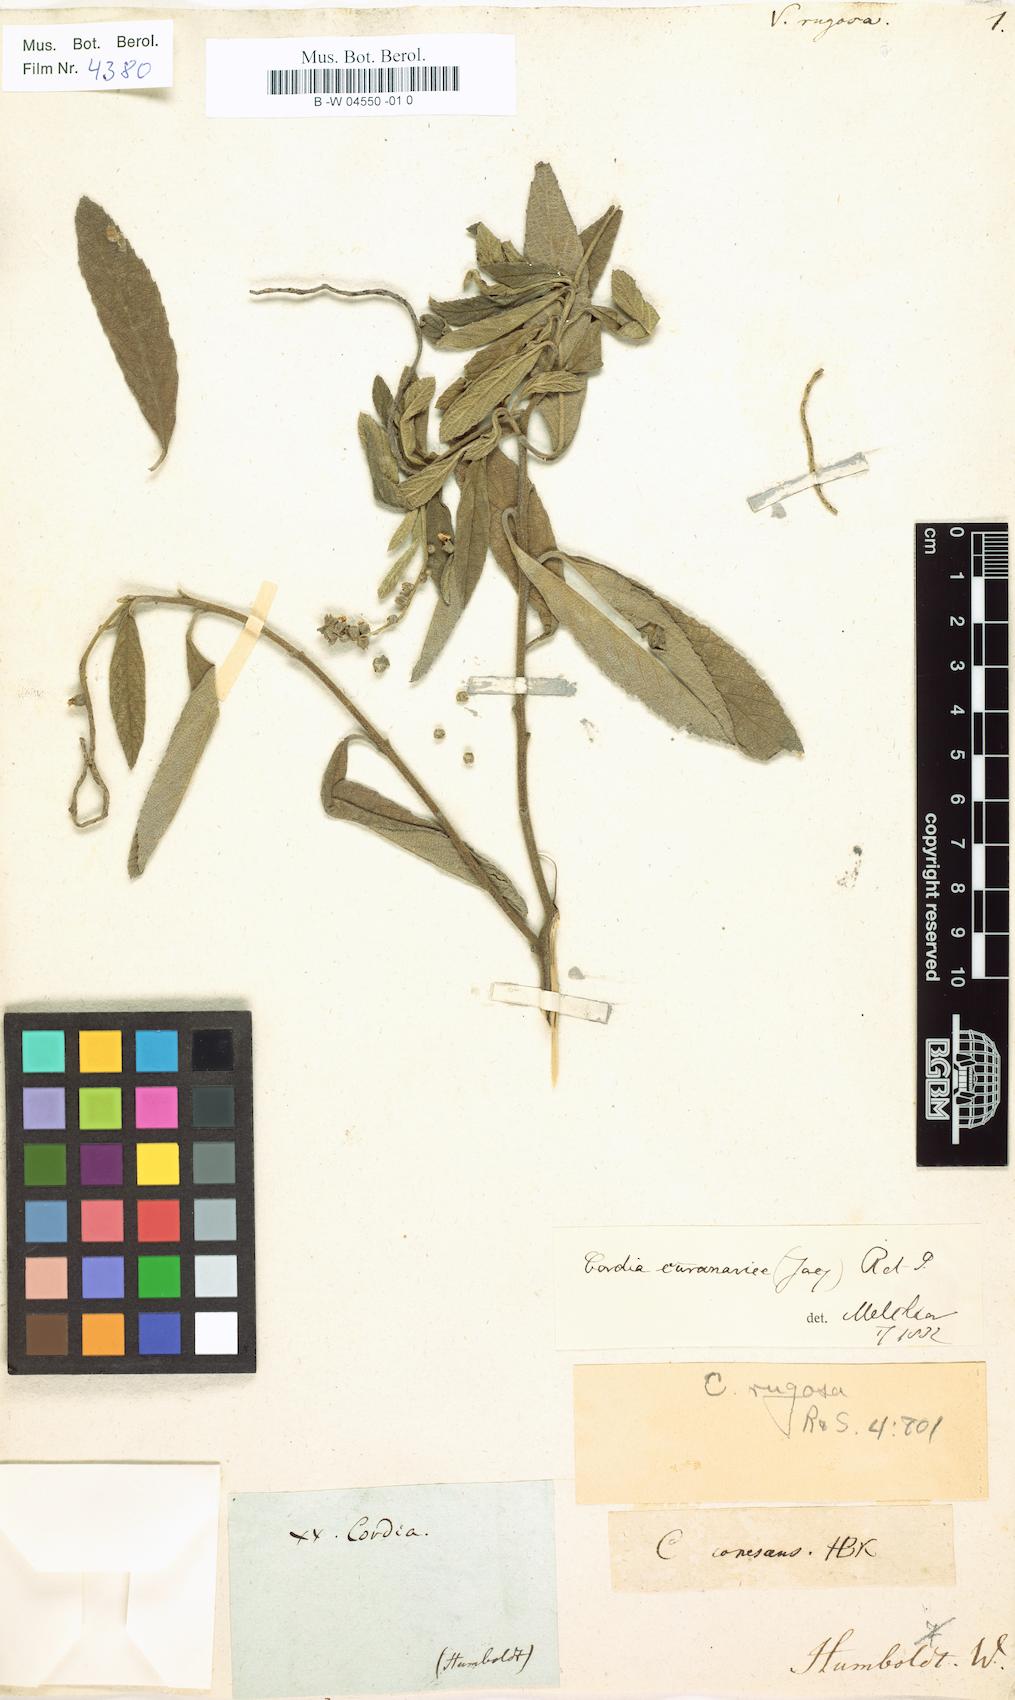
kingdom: Plantae
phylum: Tracheophyta
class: Magnoliopsida
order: Boraginales
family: Cordiaceae
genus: Varronia
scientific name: Varronia curassavica
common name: Black sage
